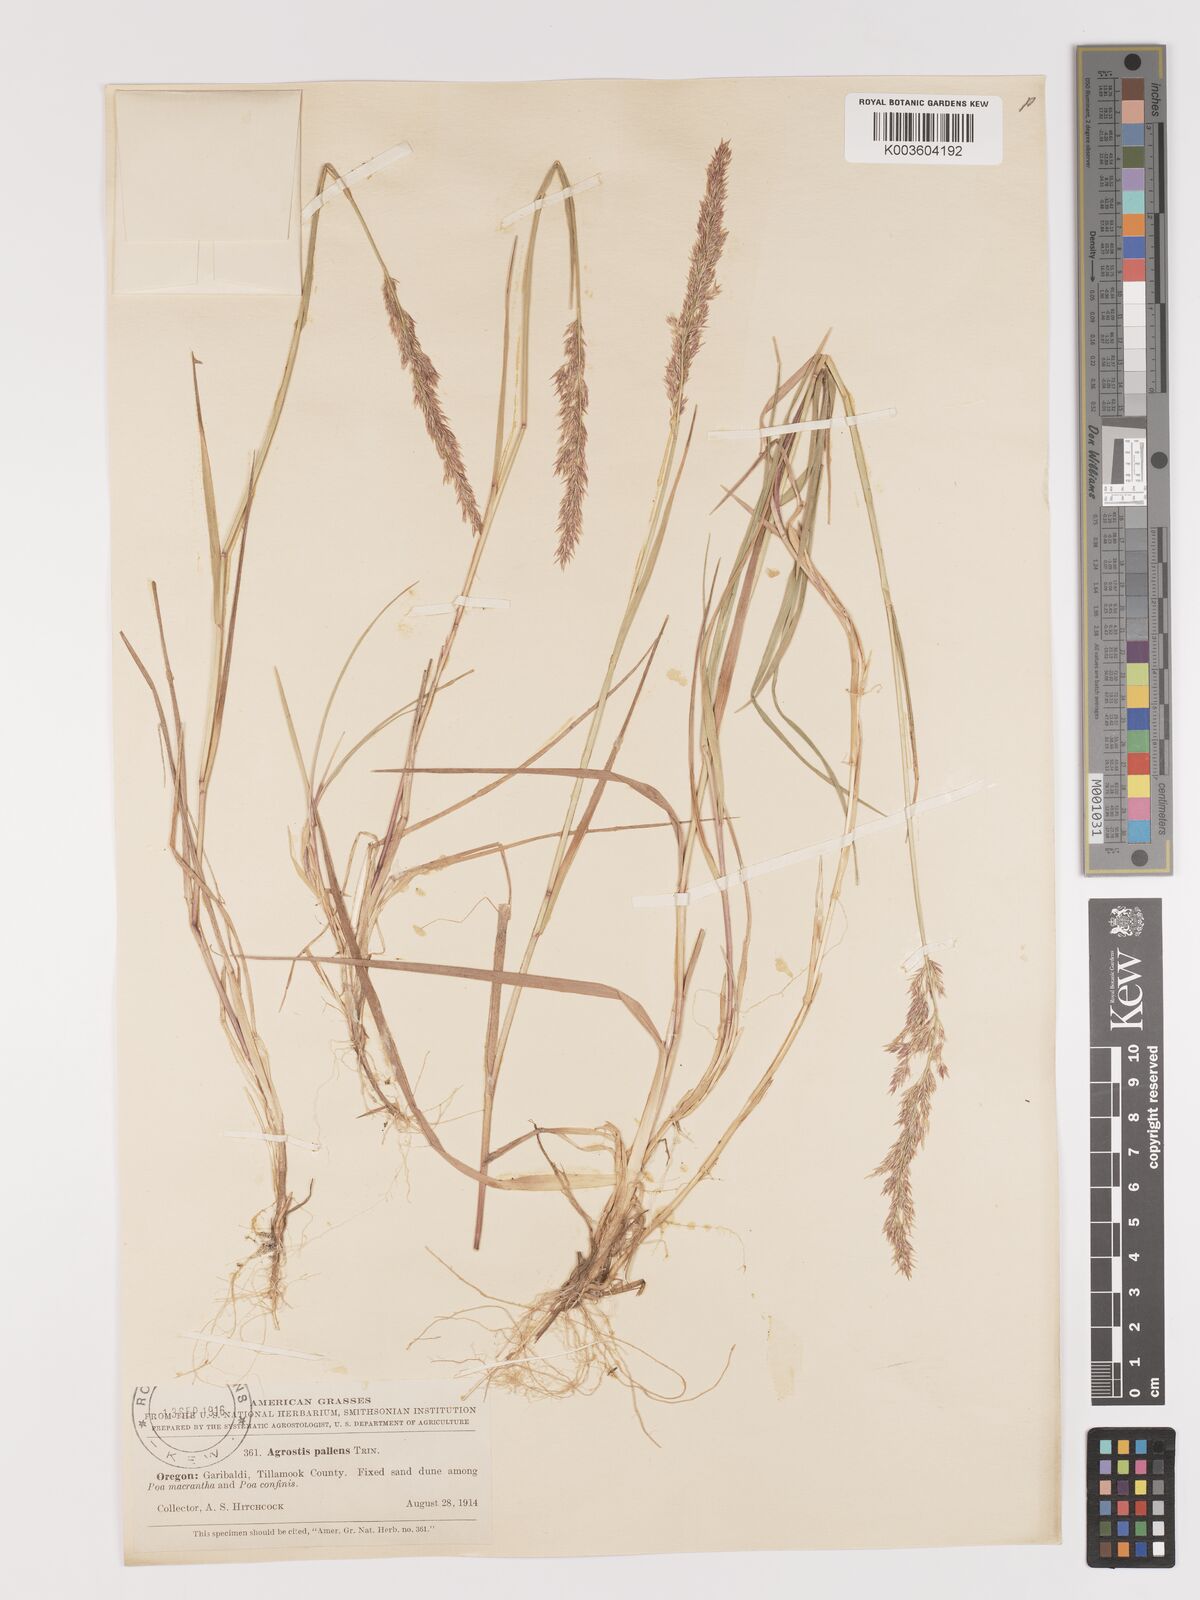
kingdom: Plantae
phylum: Tracheophyta
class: Liliopsida
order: Poales
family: Poaceae
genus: Agrostis
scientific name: Agrostis pallens
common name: Dune bent
